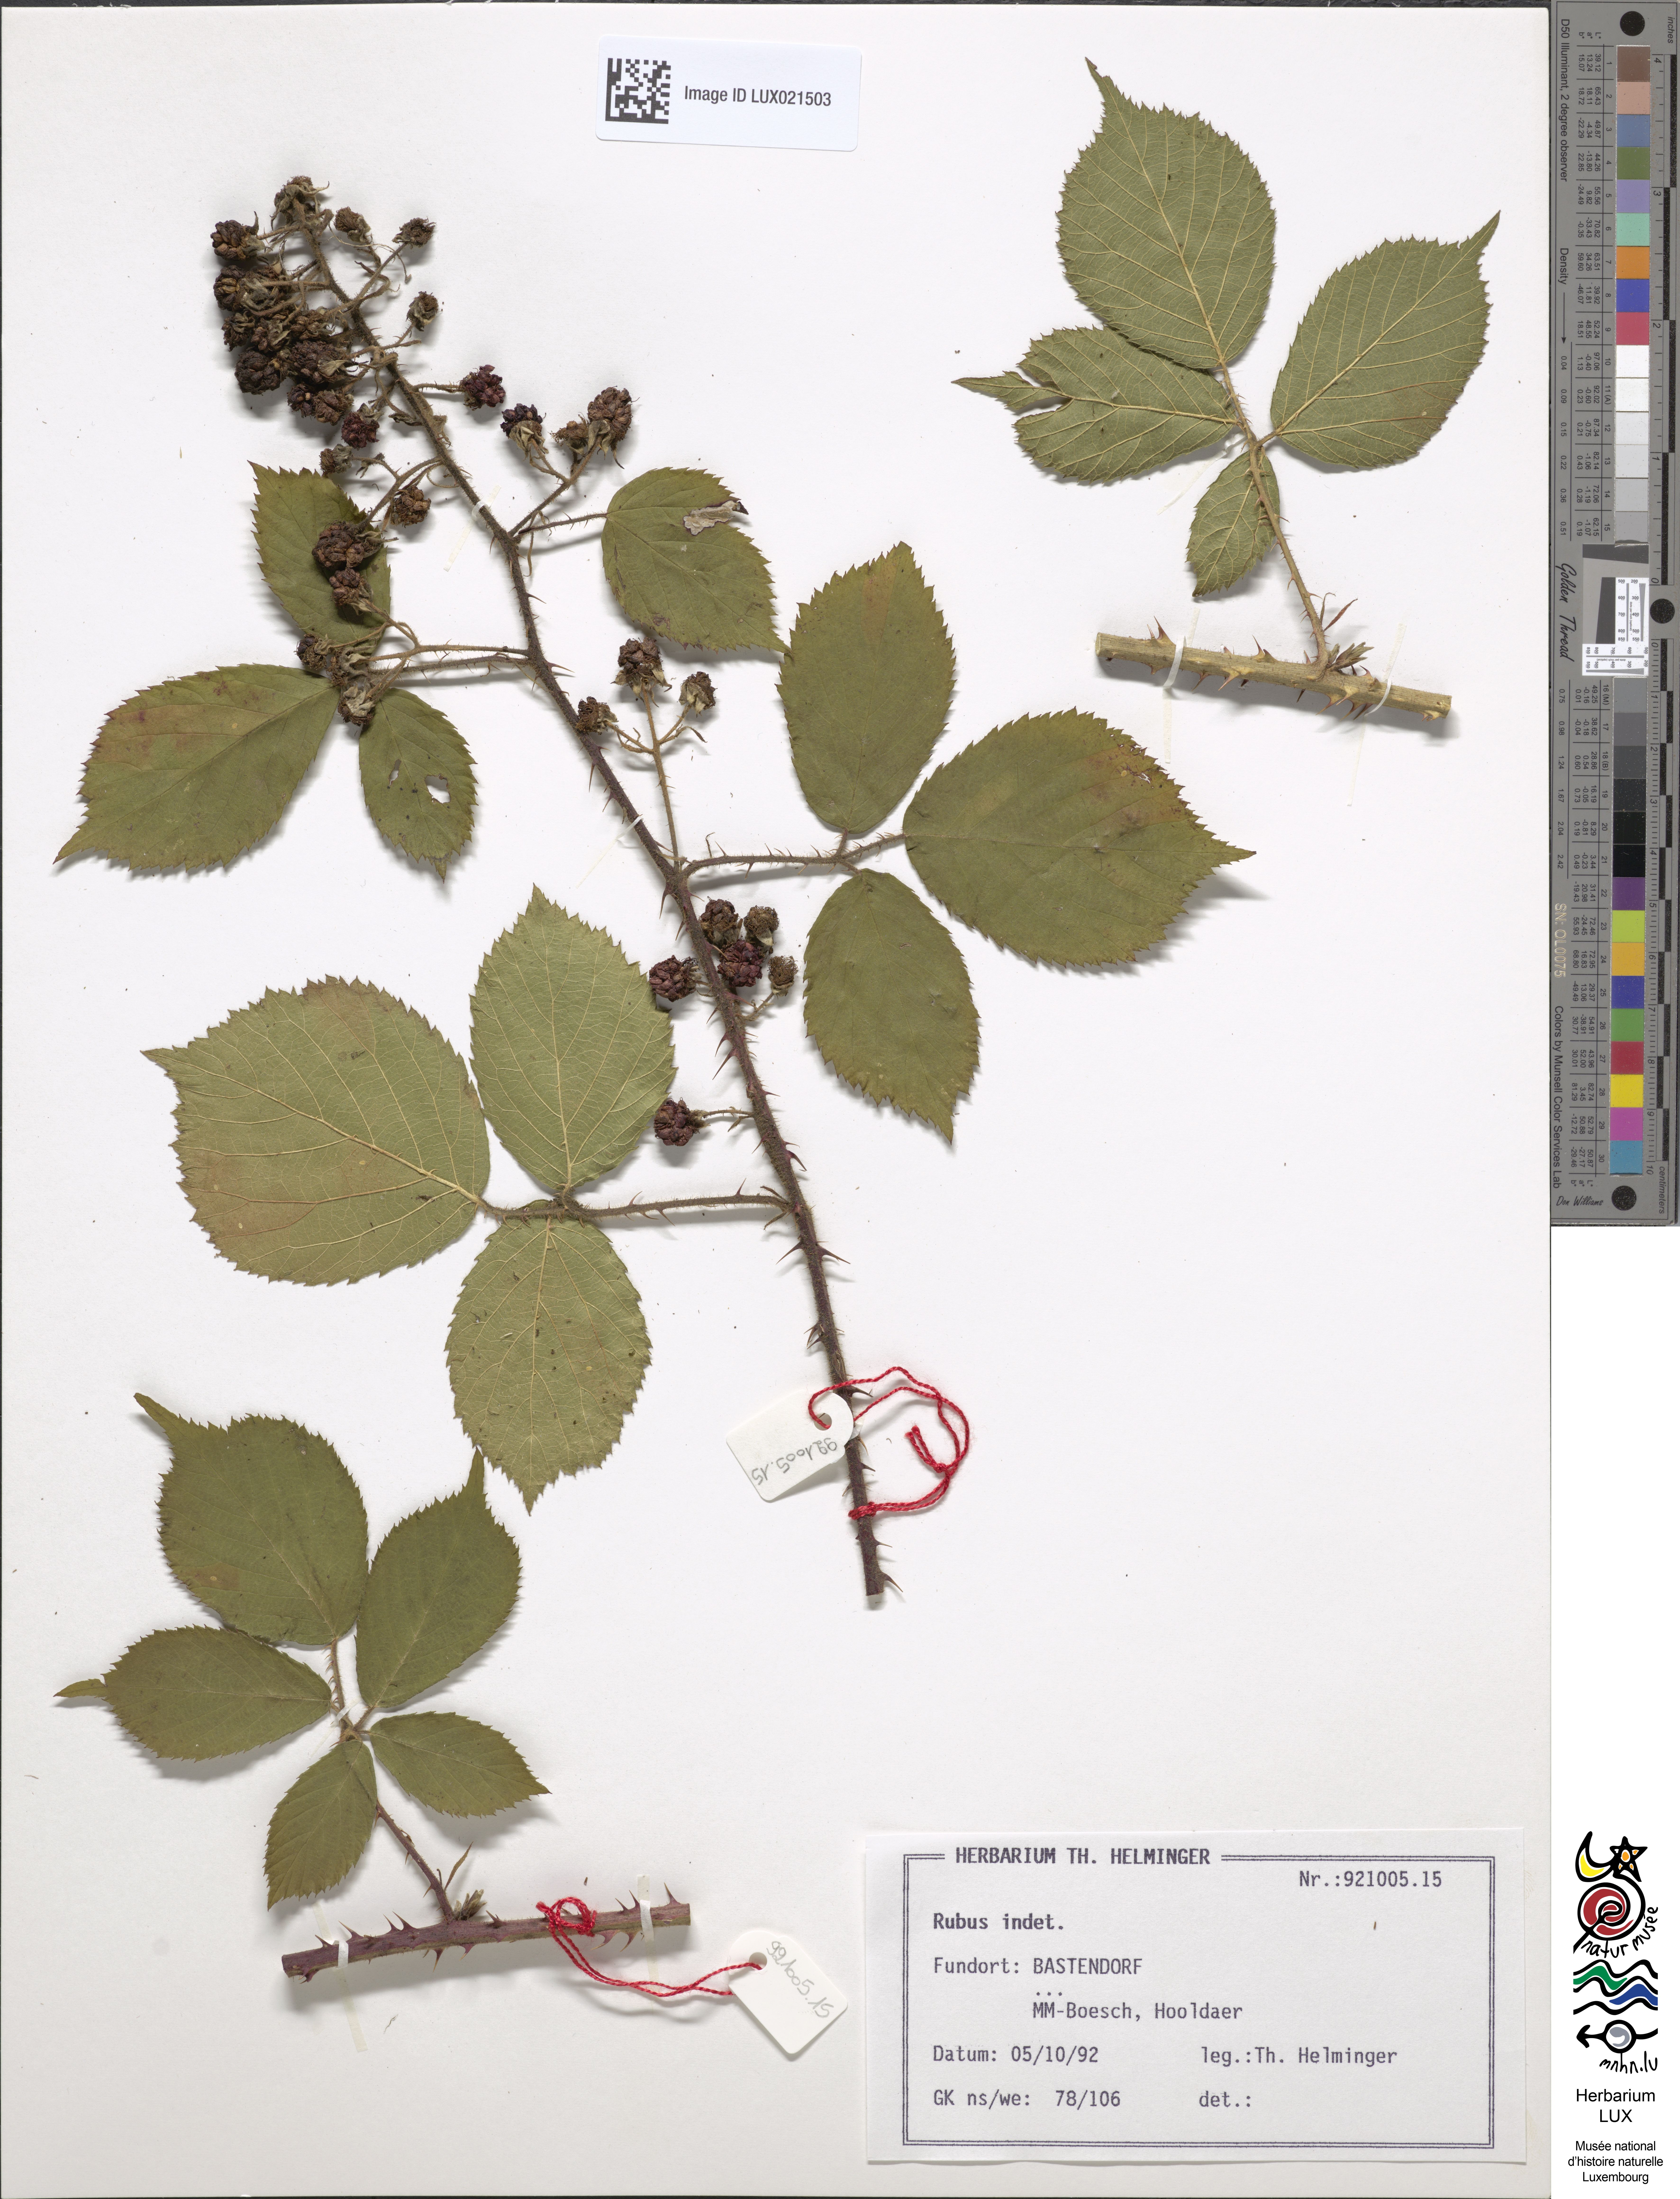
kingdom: Plantae
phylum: Tracheophyta
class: Magnoliopsida
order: Rosales
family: Rosaceae
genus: Rubus
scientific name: Rubus
